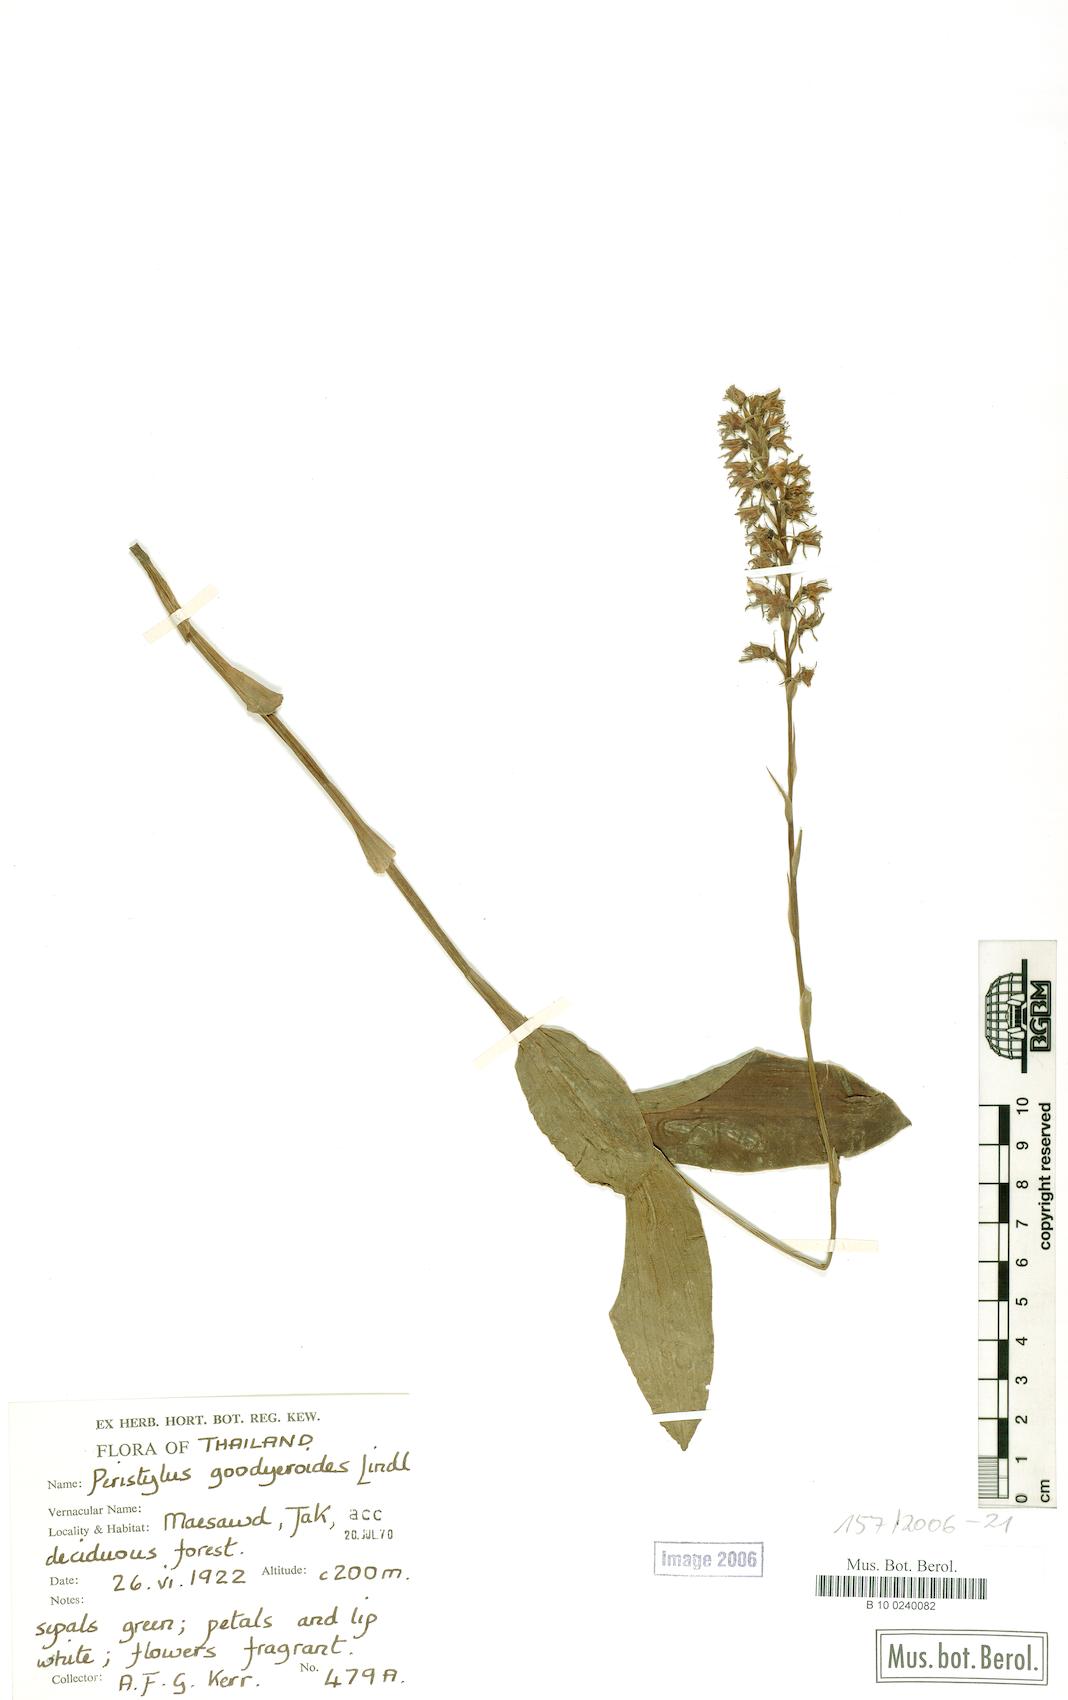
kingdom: Plantae
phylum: Tracheophyta
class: Liliopsida
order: Asparagales
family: Orchidaceae
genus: Peristylus
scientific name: Peristylus goodyeroides
